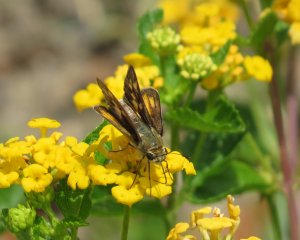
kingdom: Animalia
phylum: Arthropoda
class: Insecta
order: Lepidoptera
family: Hesperiidae
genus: Hylephila
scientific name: Hylephila phyleus
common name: Fiery Skipper
